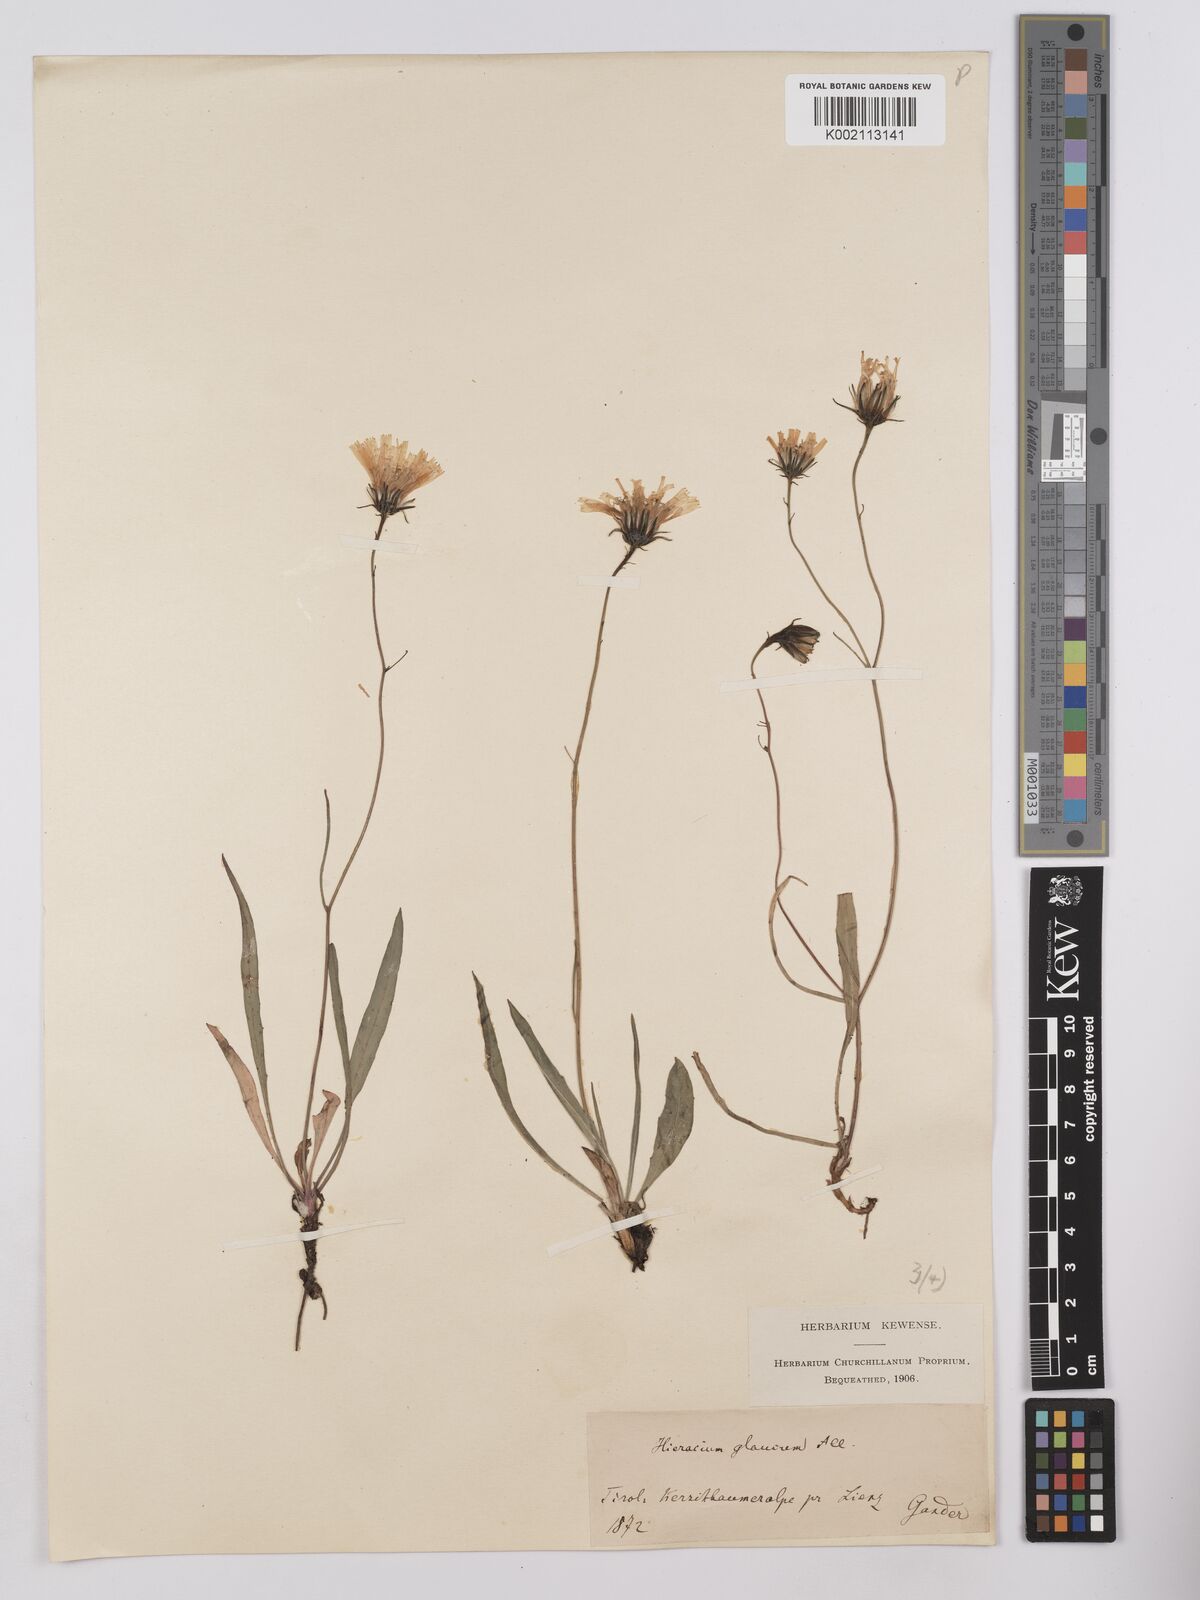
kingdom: Plantae
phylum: Tracheophyta
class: Magnoliopsida
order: Asterales
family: Asteraceae
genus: Hieracium
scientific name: Hieracium glaucum
